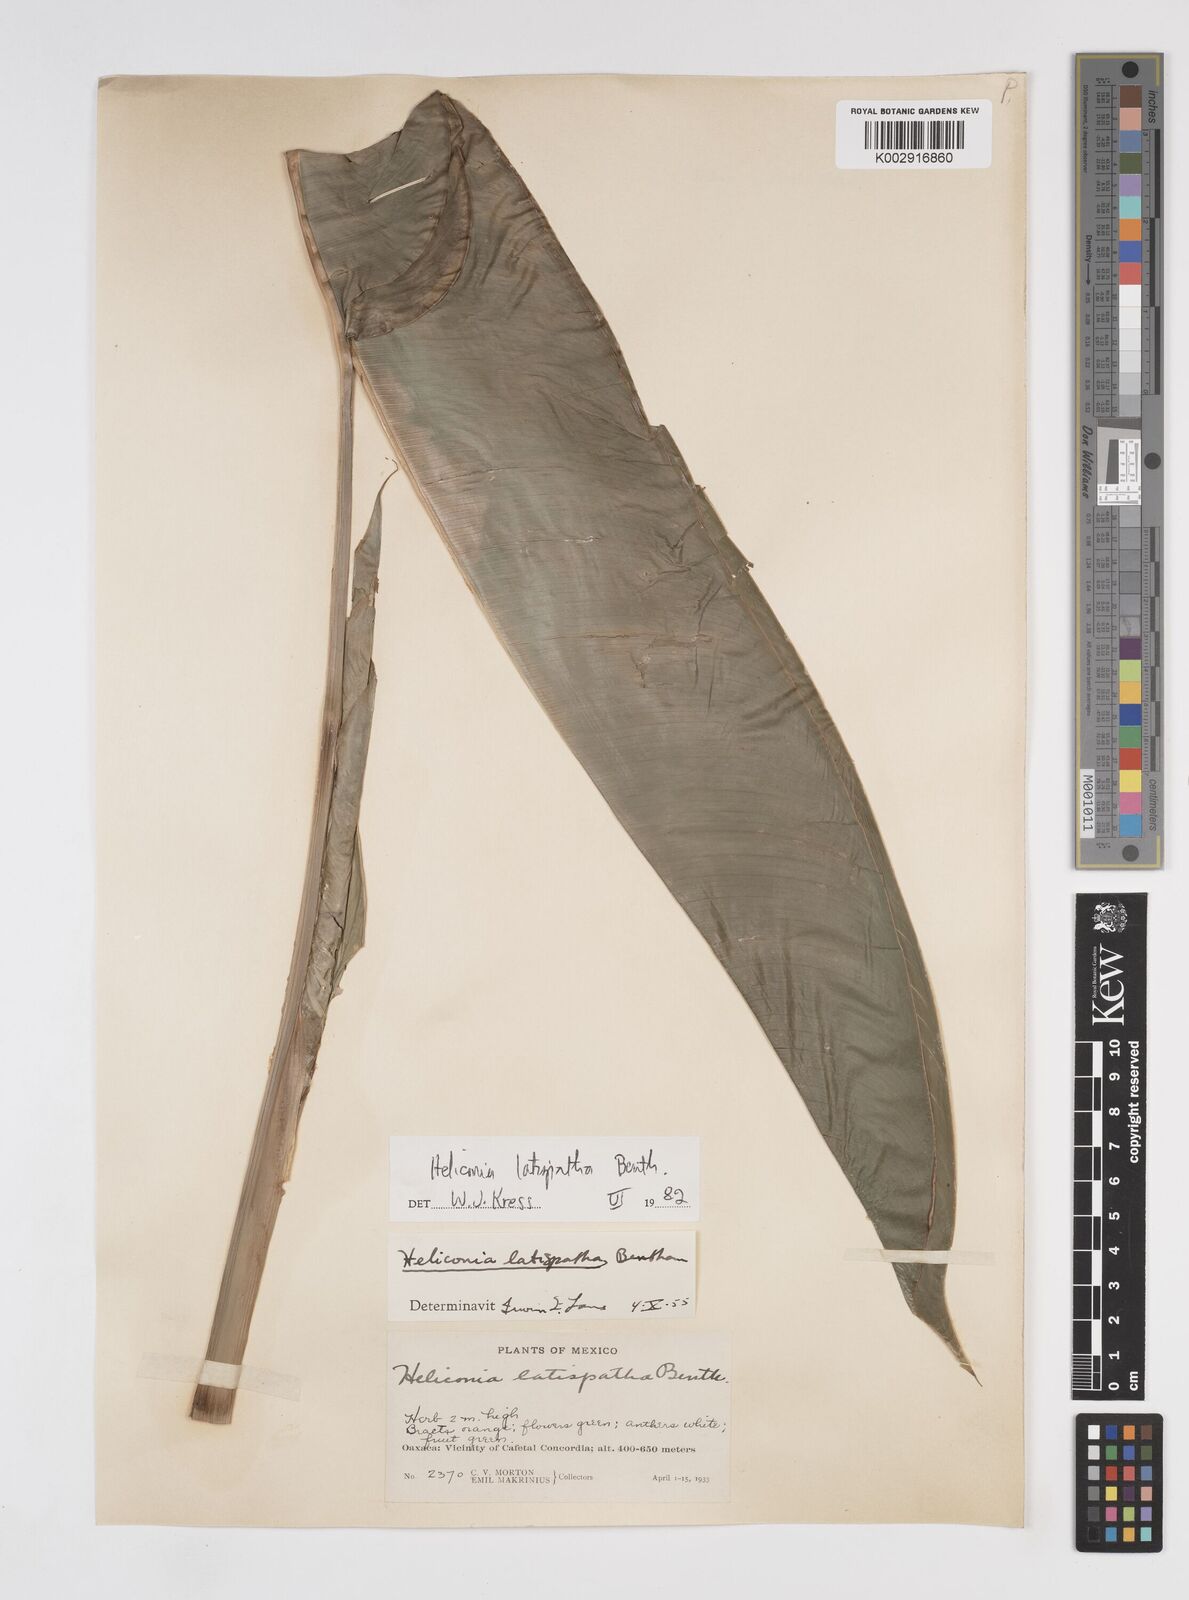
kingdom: Plantae
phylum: Tracheophyta
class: Liliopsida
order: Zingiberales
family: Heliconiaceae
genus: Heliconia
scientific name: Heliconia latispatha
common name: Expanded lobsterclaw
